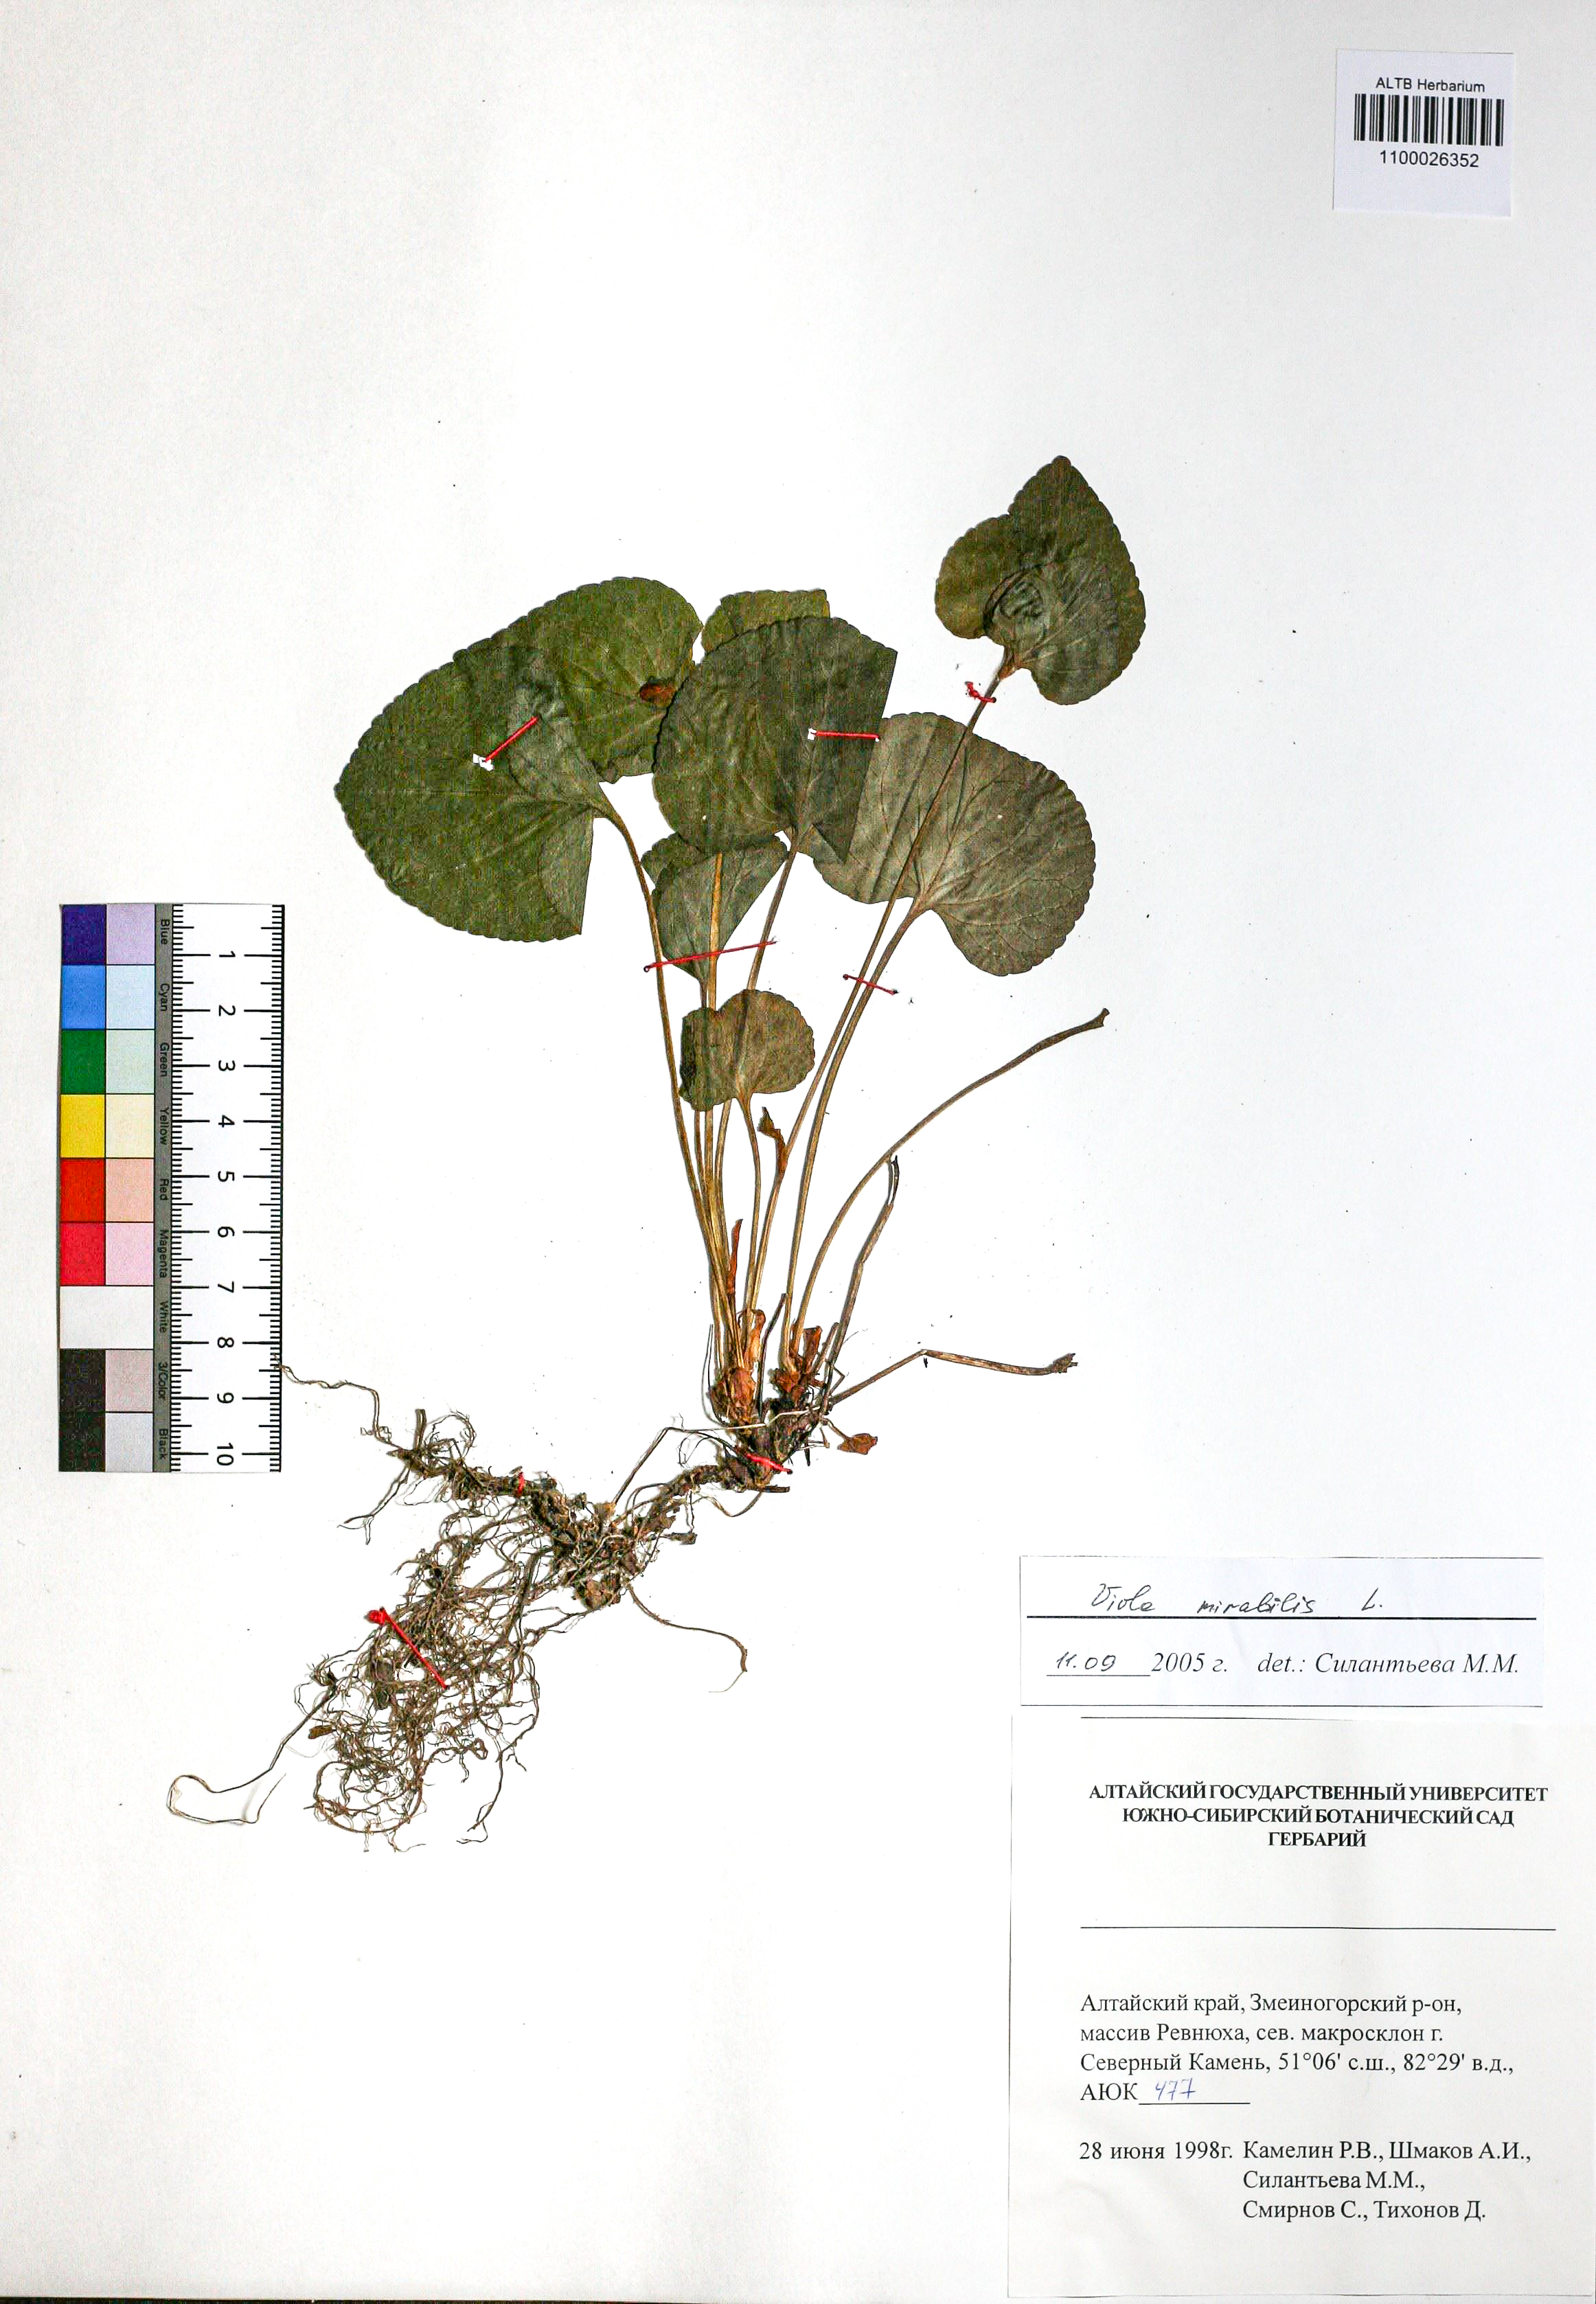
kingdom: Plantae
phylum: Tracheophyta
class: Magnoliopsida
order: Malpighiales
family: Violaceae
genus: Viola
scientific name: Viola mirabilis
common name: Wonder violet
